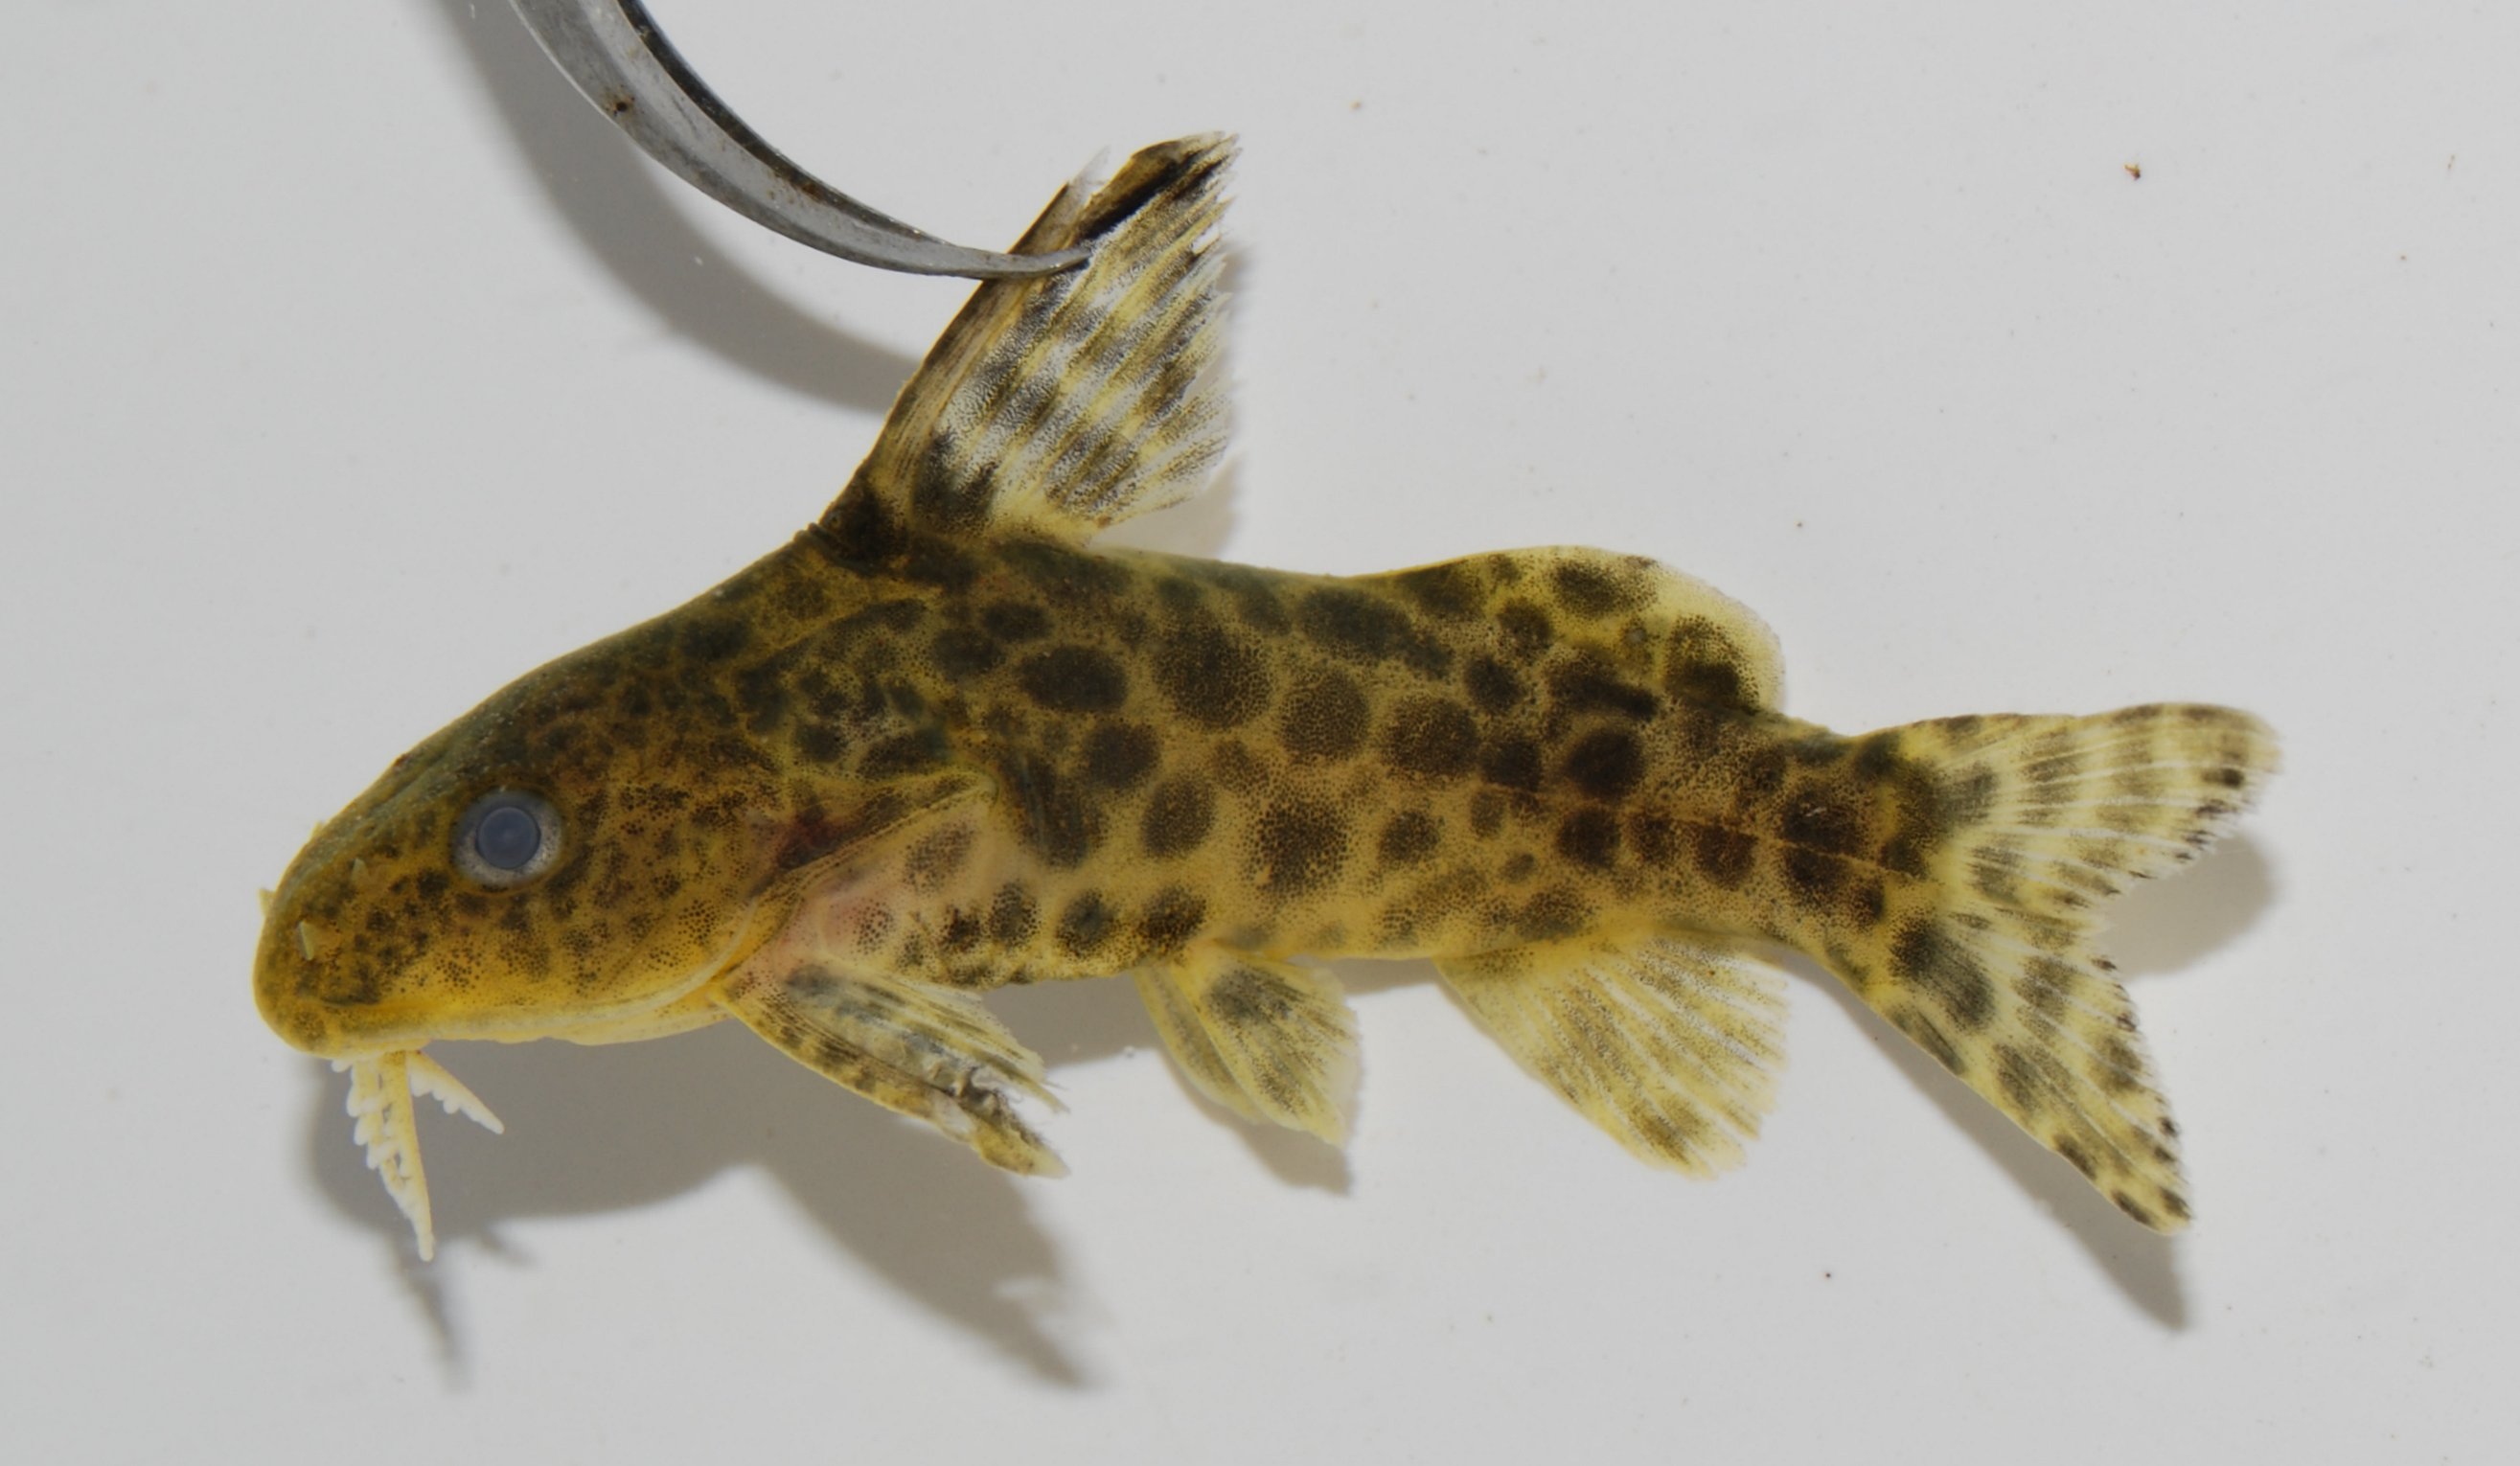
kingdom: Animalia
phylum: Chordata
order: Siluriformes
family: Mochokidae
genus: Synodontis
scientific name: Synodontis
